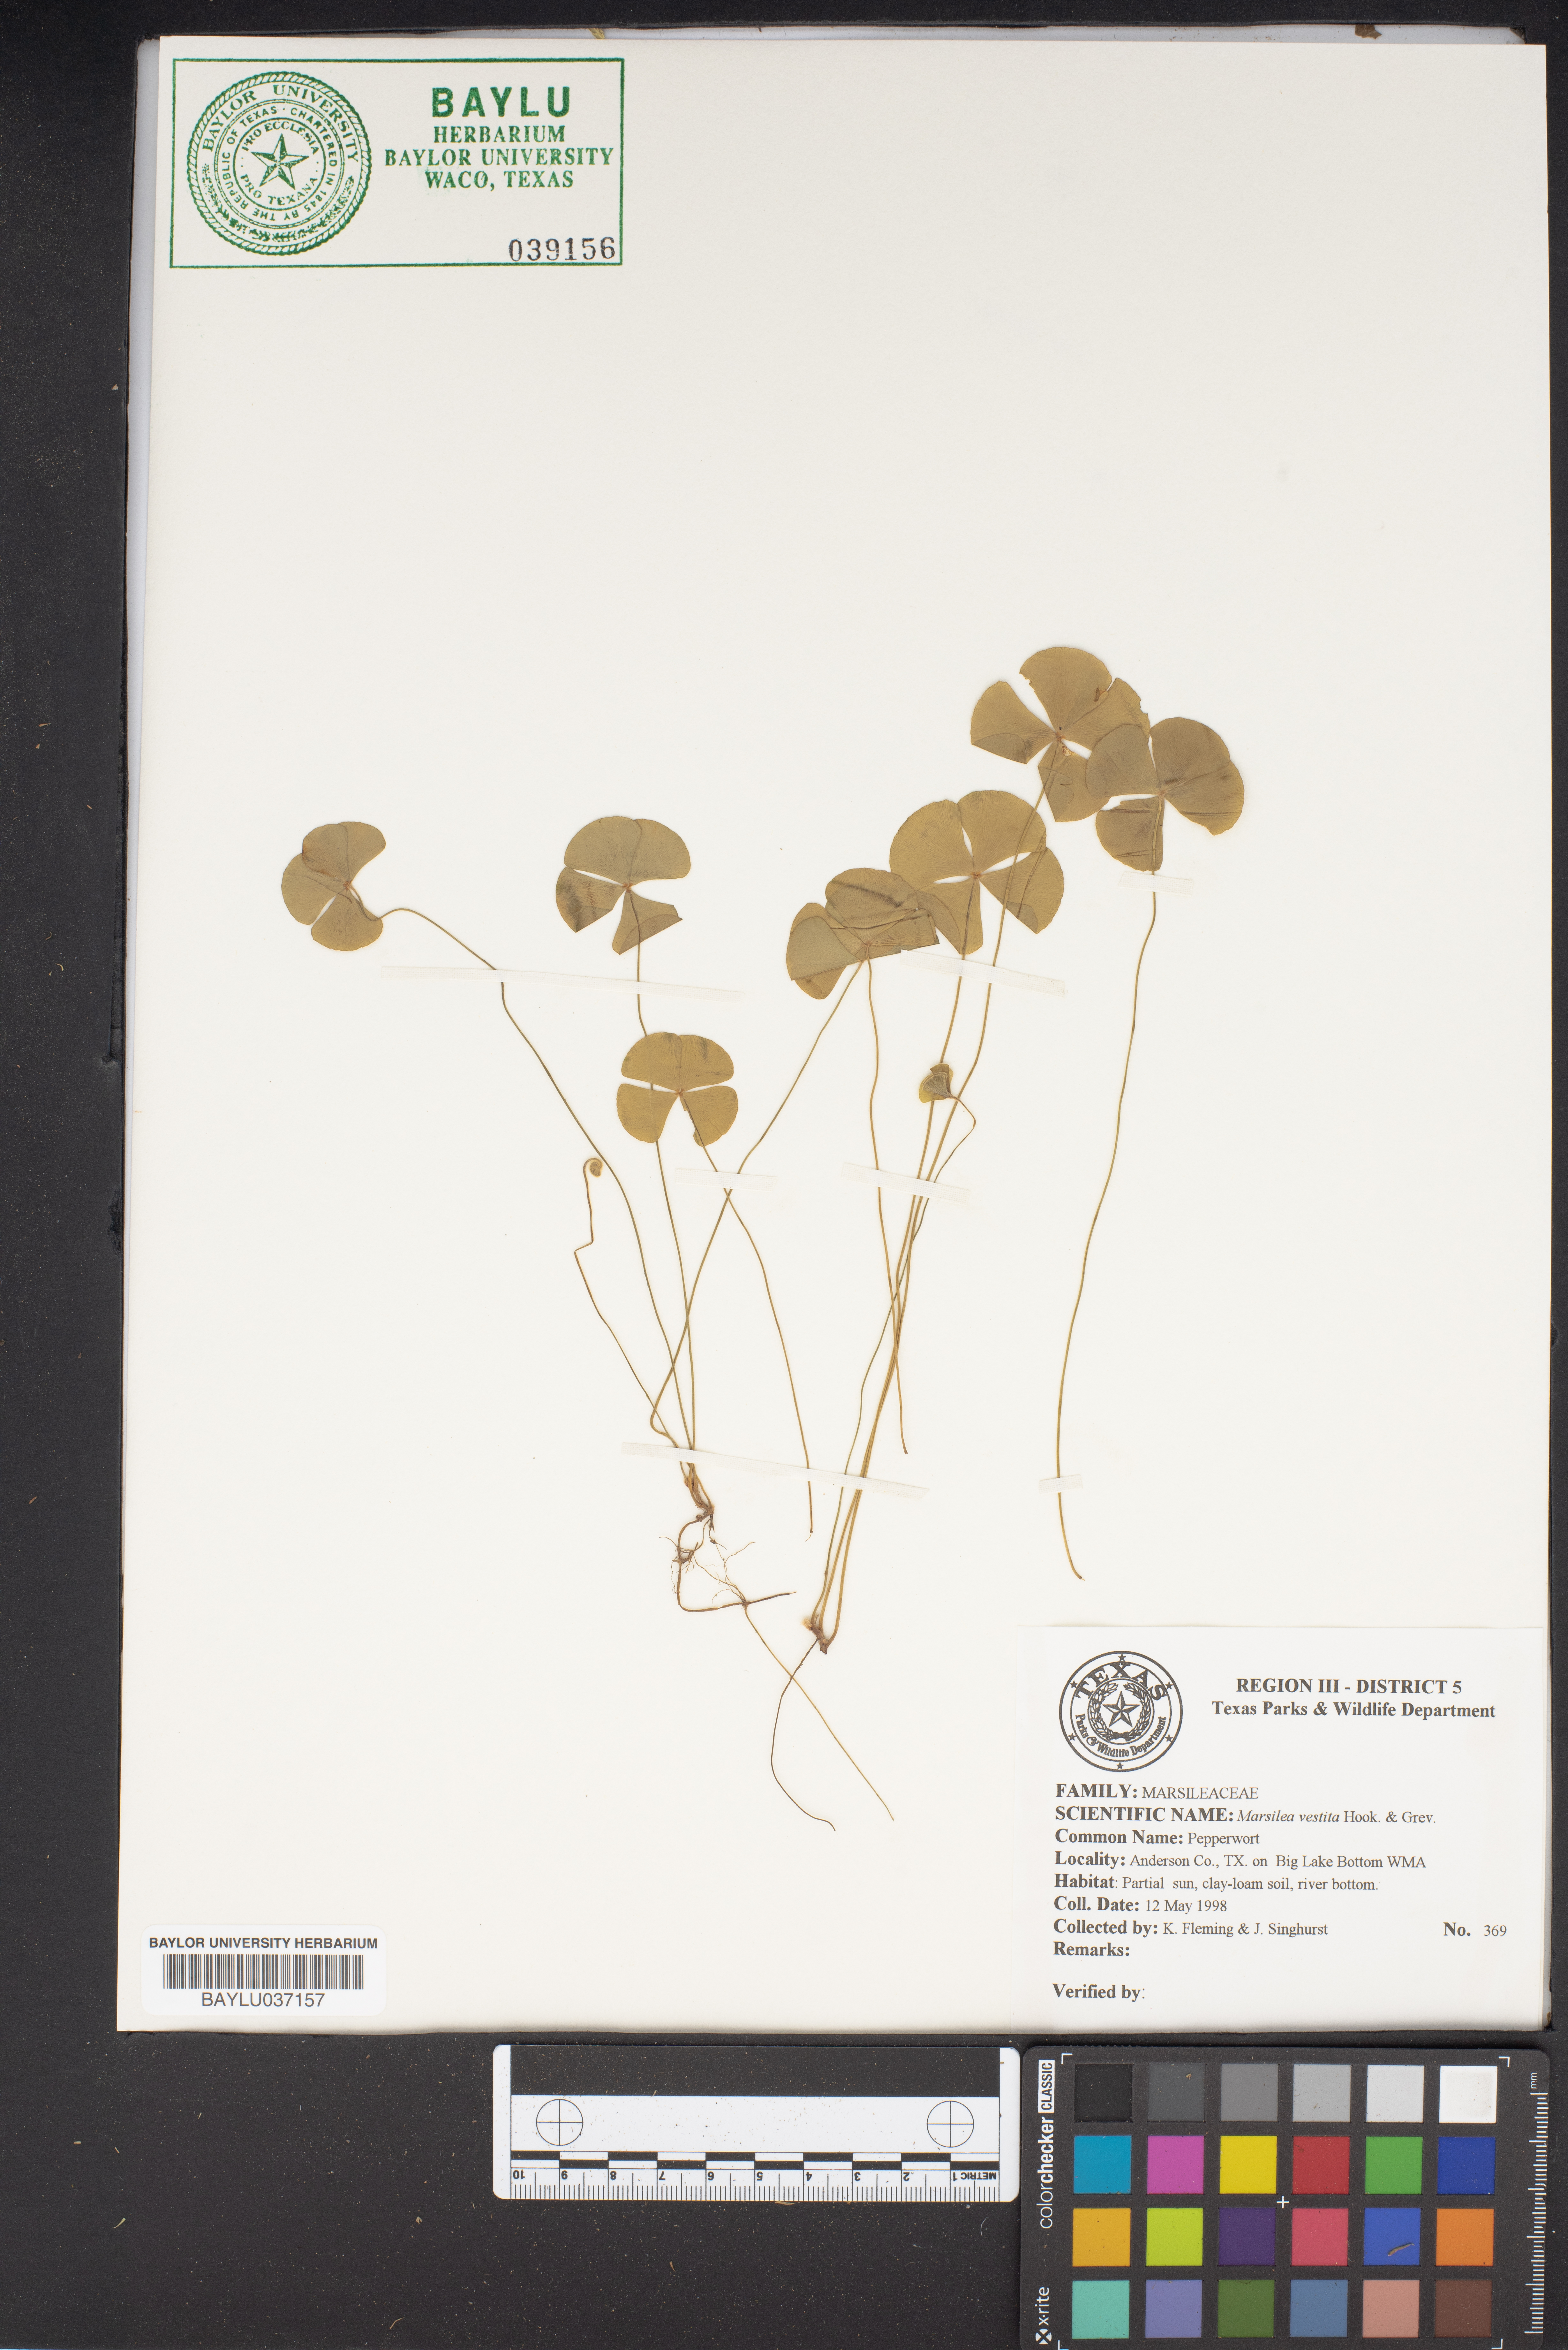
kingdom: Plantae
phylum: Tracheophyta
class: Polypodiopsida
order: Salviniales
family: Marsileaceae
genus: Marsilea
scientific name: Marsilea vestita
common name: Hooked-pepperwort
